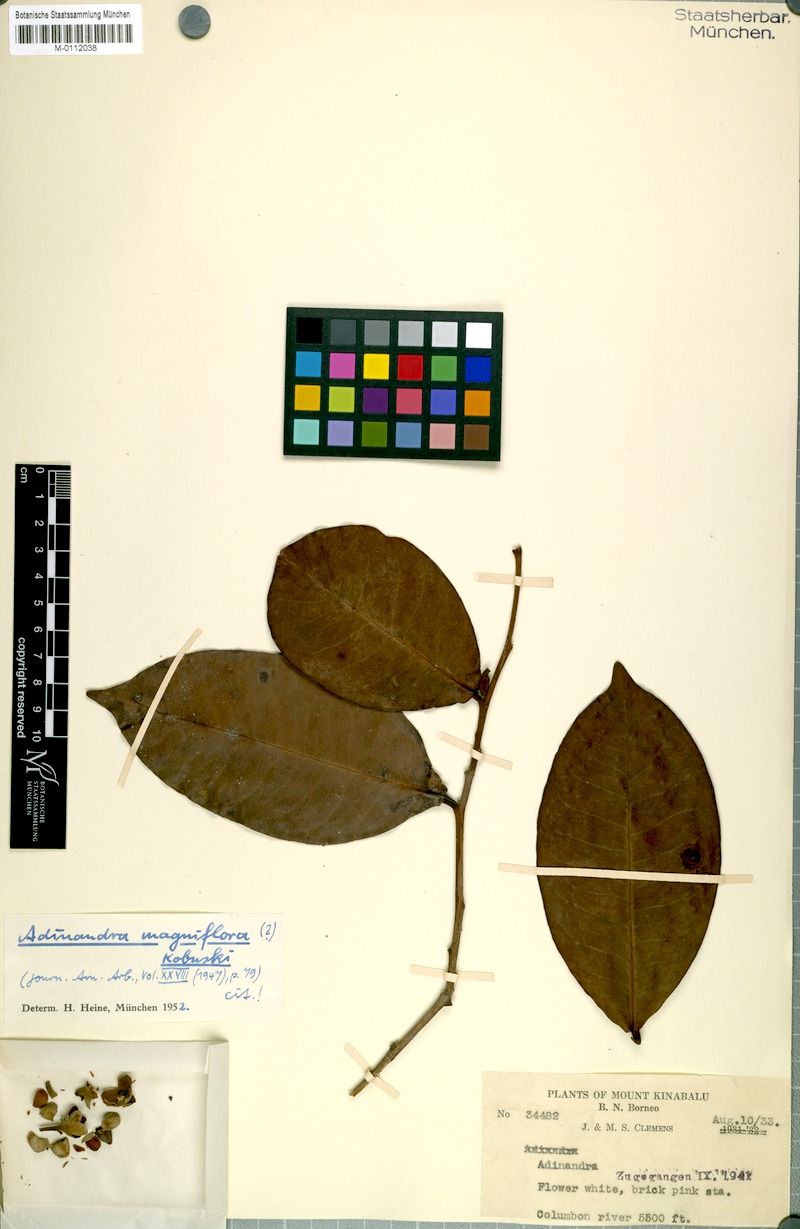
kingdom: Plantae
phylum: Tracheophyta
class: Magnoliopsida
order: Ericales
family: Pentaphylacaceae
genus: Adinandra
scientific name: Adinandra magniflora
